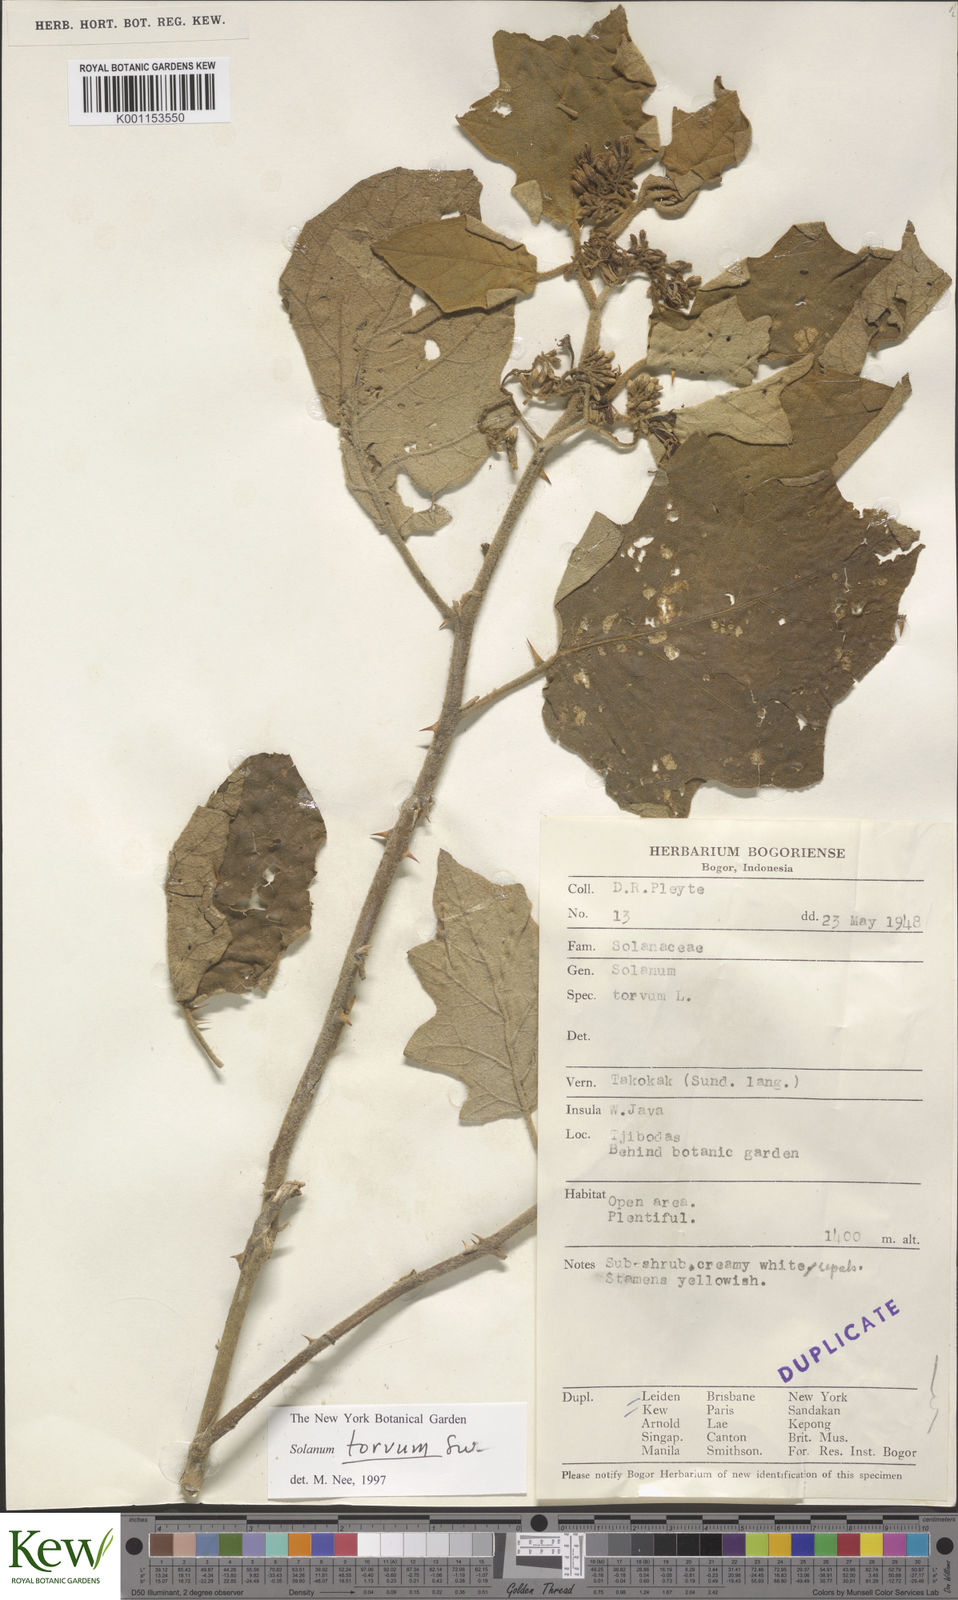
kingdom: Plantae
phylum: Tracheophyta
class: Magnoliopsida
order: Solanales
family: Solanaceae
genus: Solanum
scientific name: Solanum torvum
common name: Turkey berry
